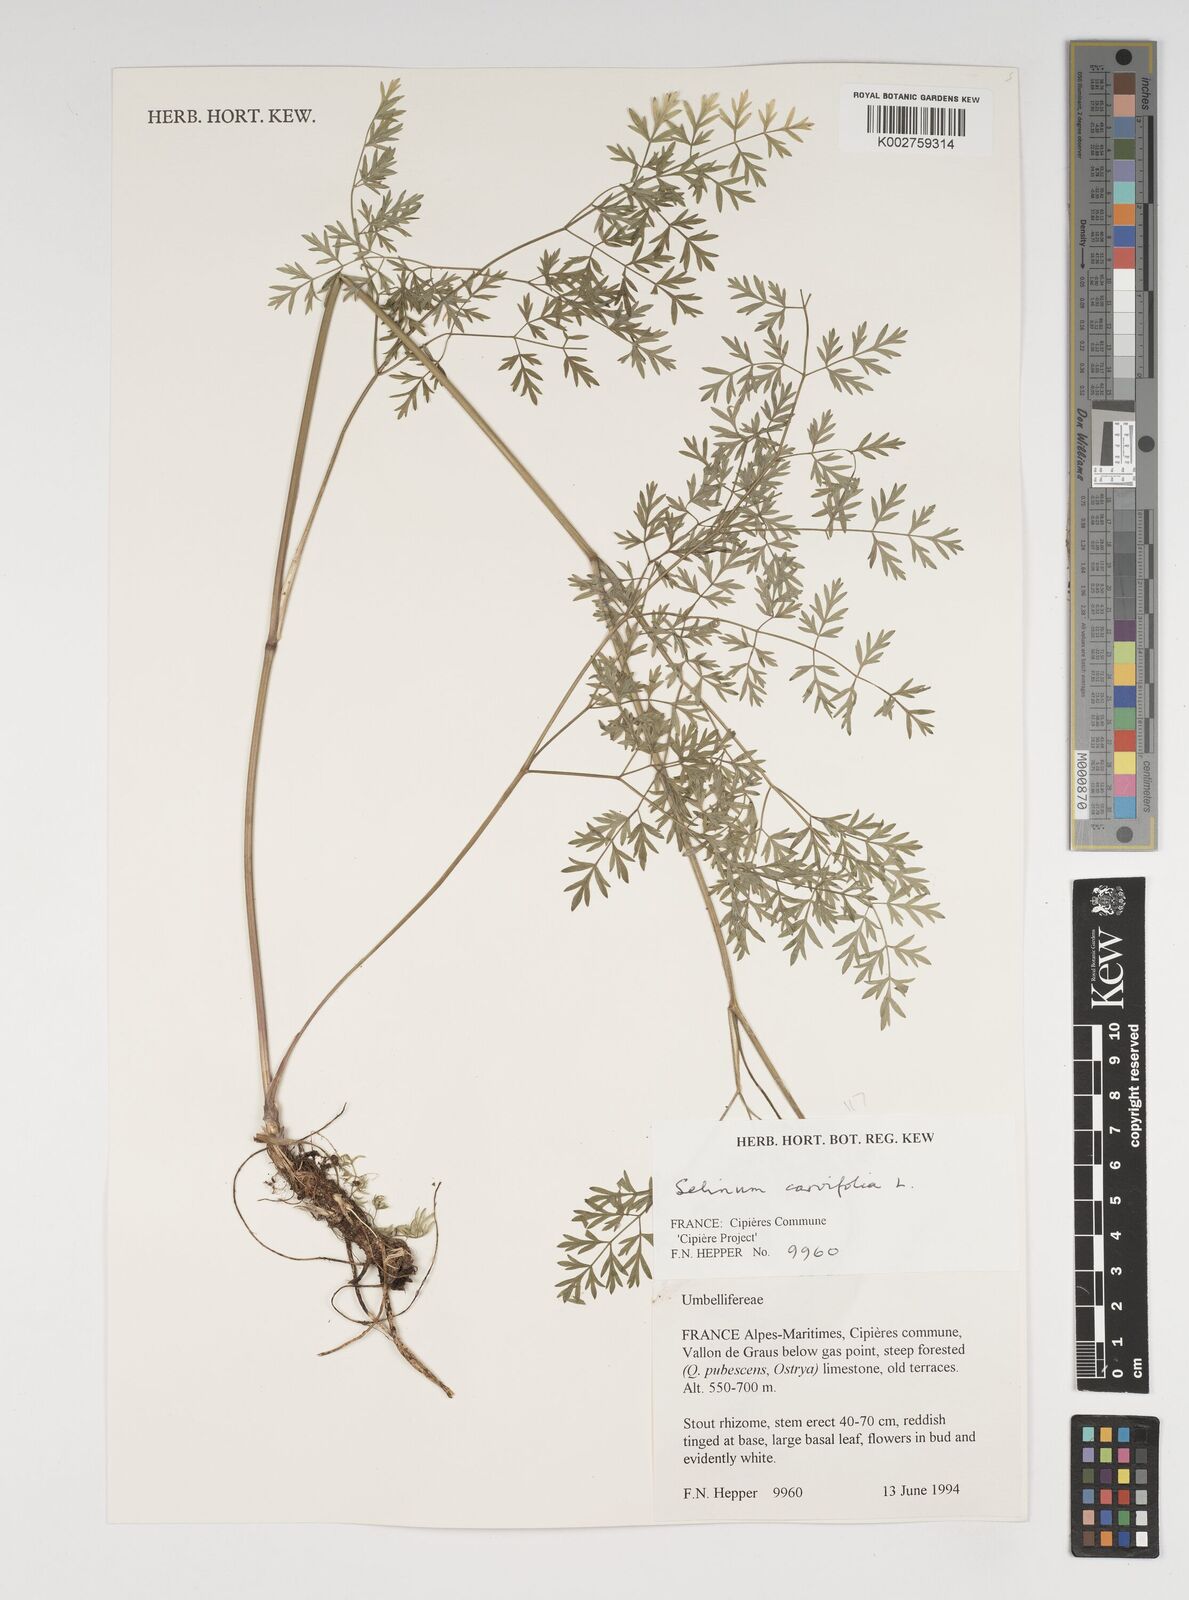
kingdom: Plantae
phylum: Tracheophyta
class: Magnoliopsida
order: Apiales
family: Apiaceae
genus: Selinum
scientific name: Selinum carvifolia
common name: Cambridge milk-parsley
